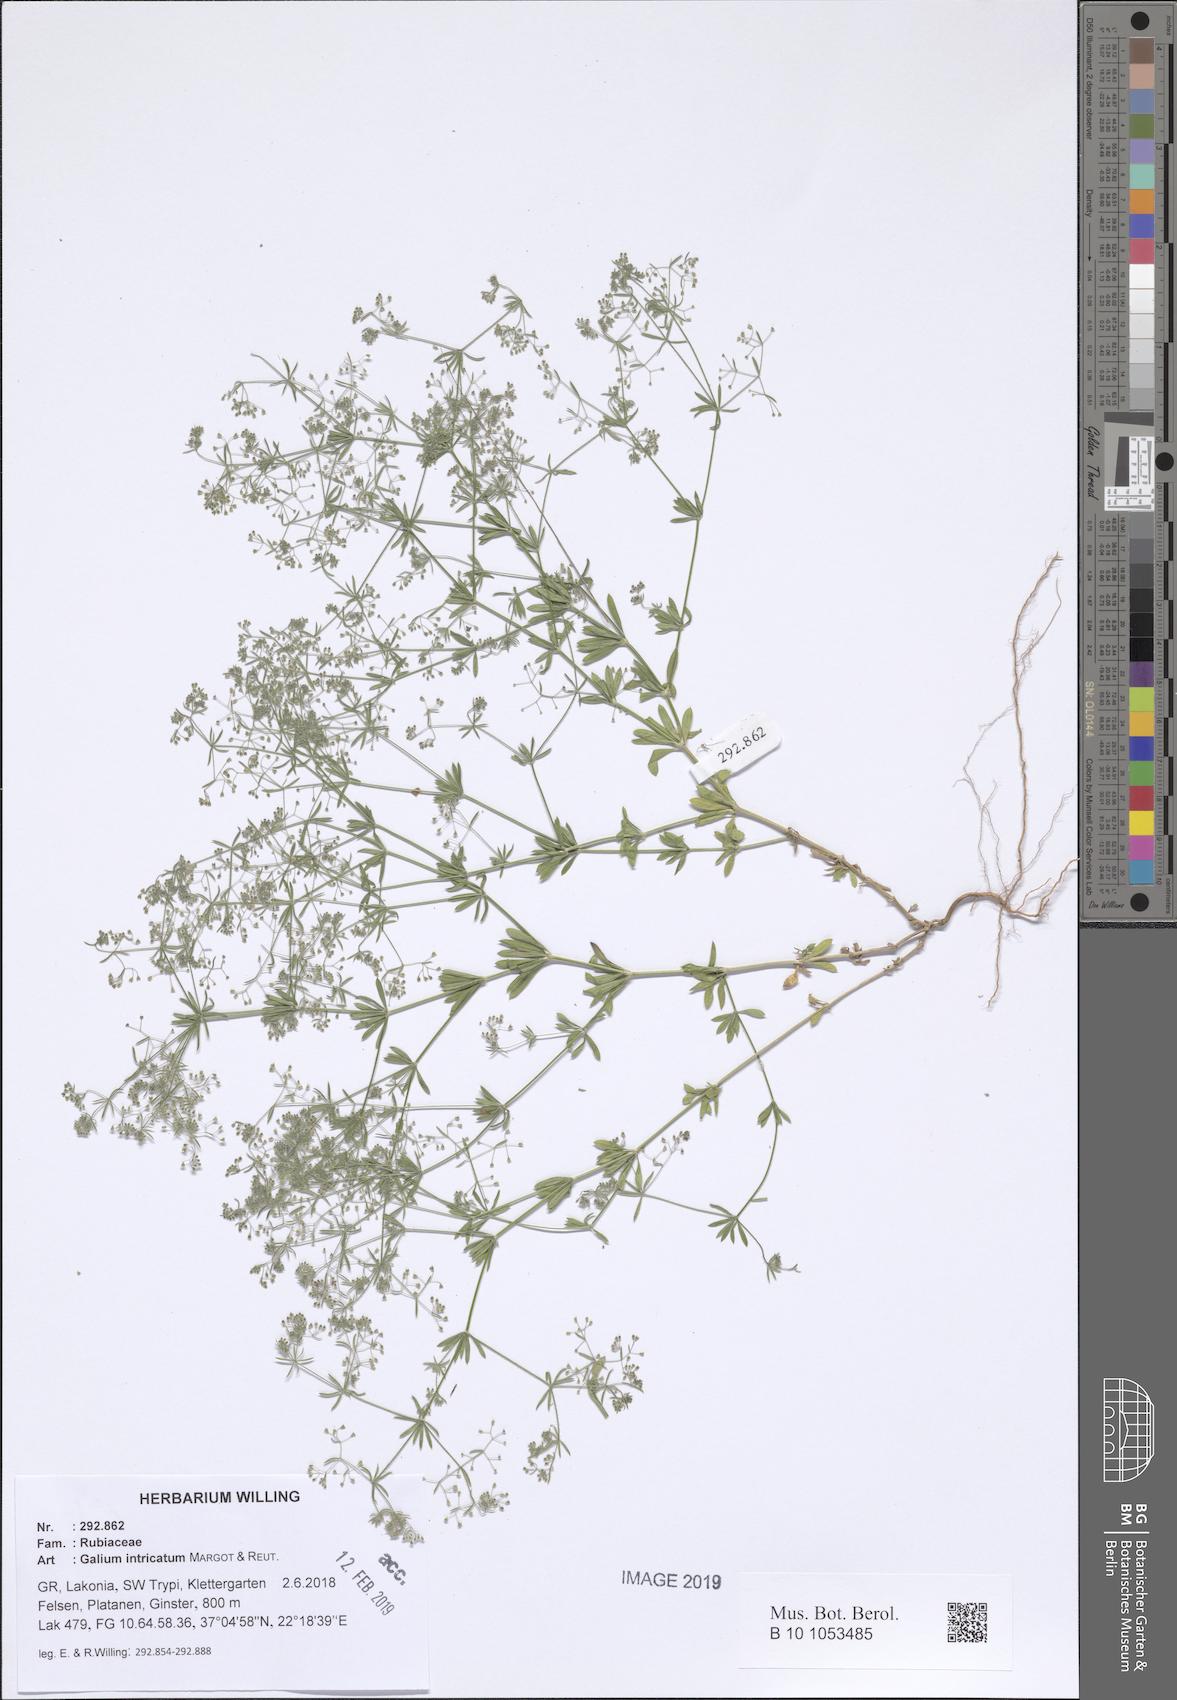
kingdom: Plantae
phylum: Tracheophyta
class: Magnoliopsida
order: Gentianales
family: Rubiaceae
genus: Galium
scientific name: Galium intricatum
